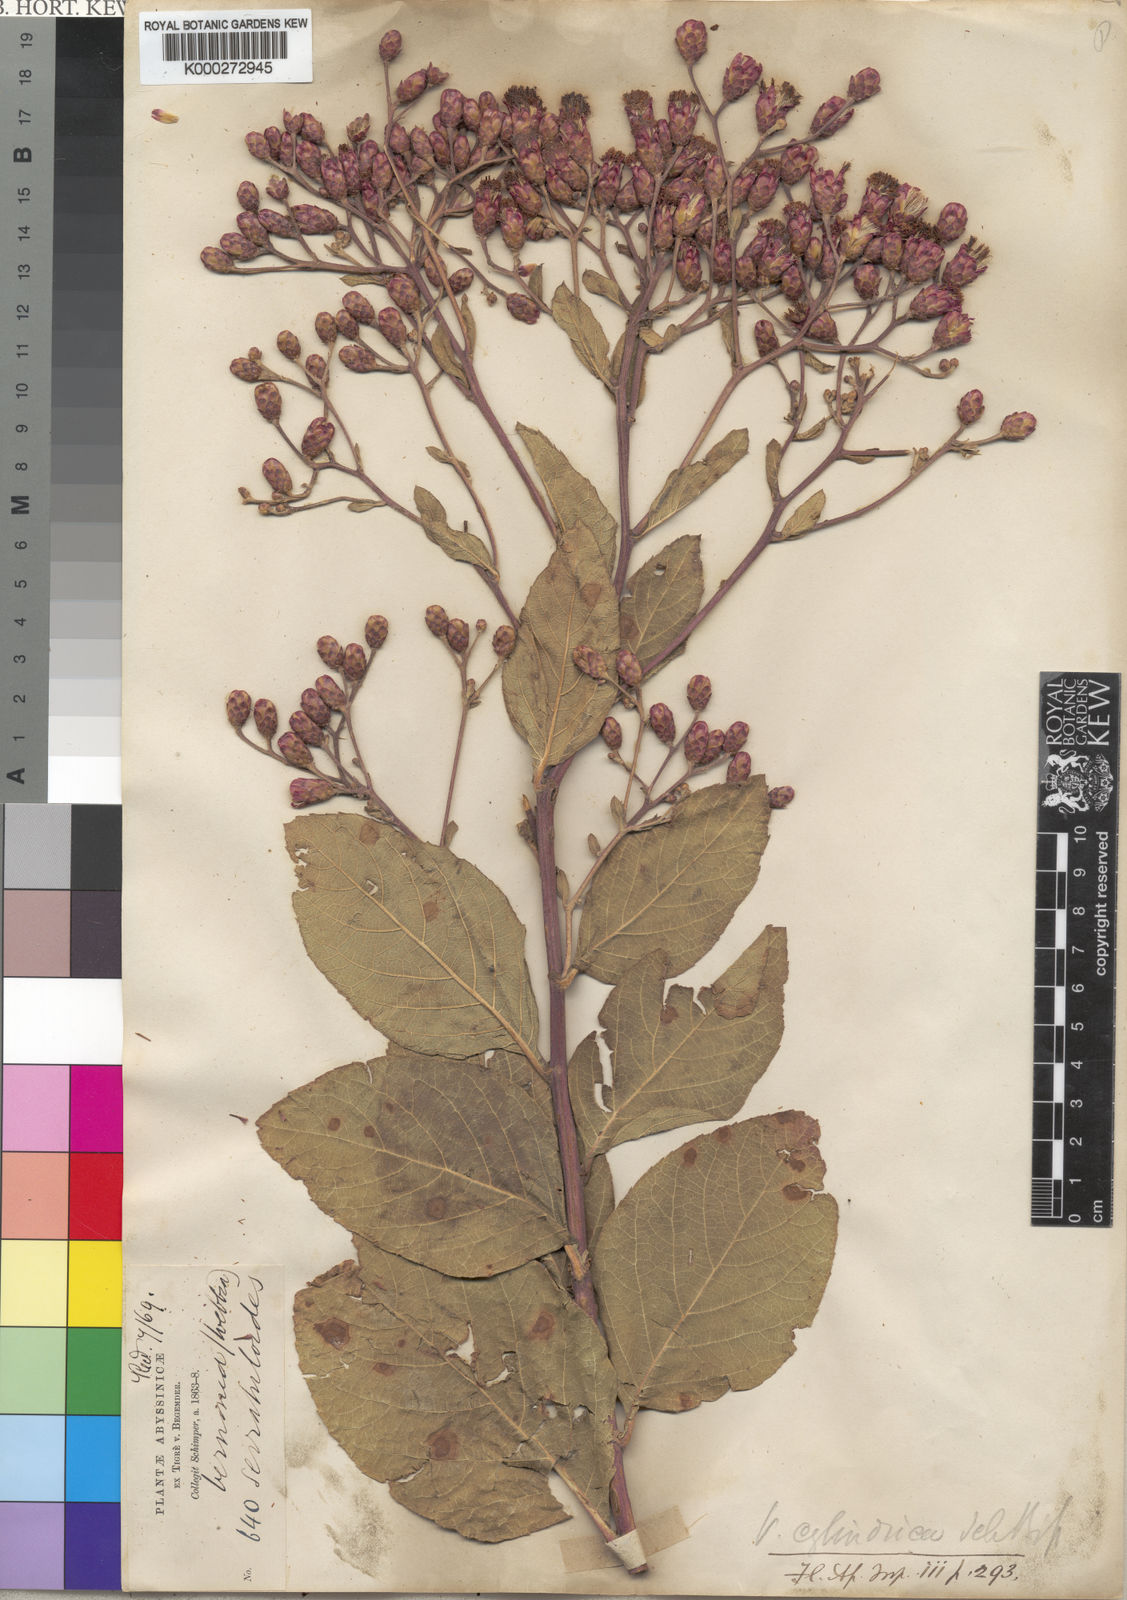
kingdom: Plantae
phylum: Tracheophyta
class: Magnoliopsida
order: Asterales
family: Asteraceae
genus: Vernonia
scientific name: Vernonia cylindrica
